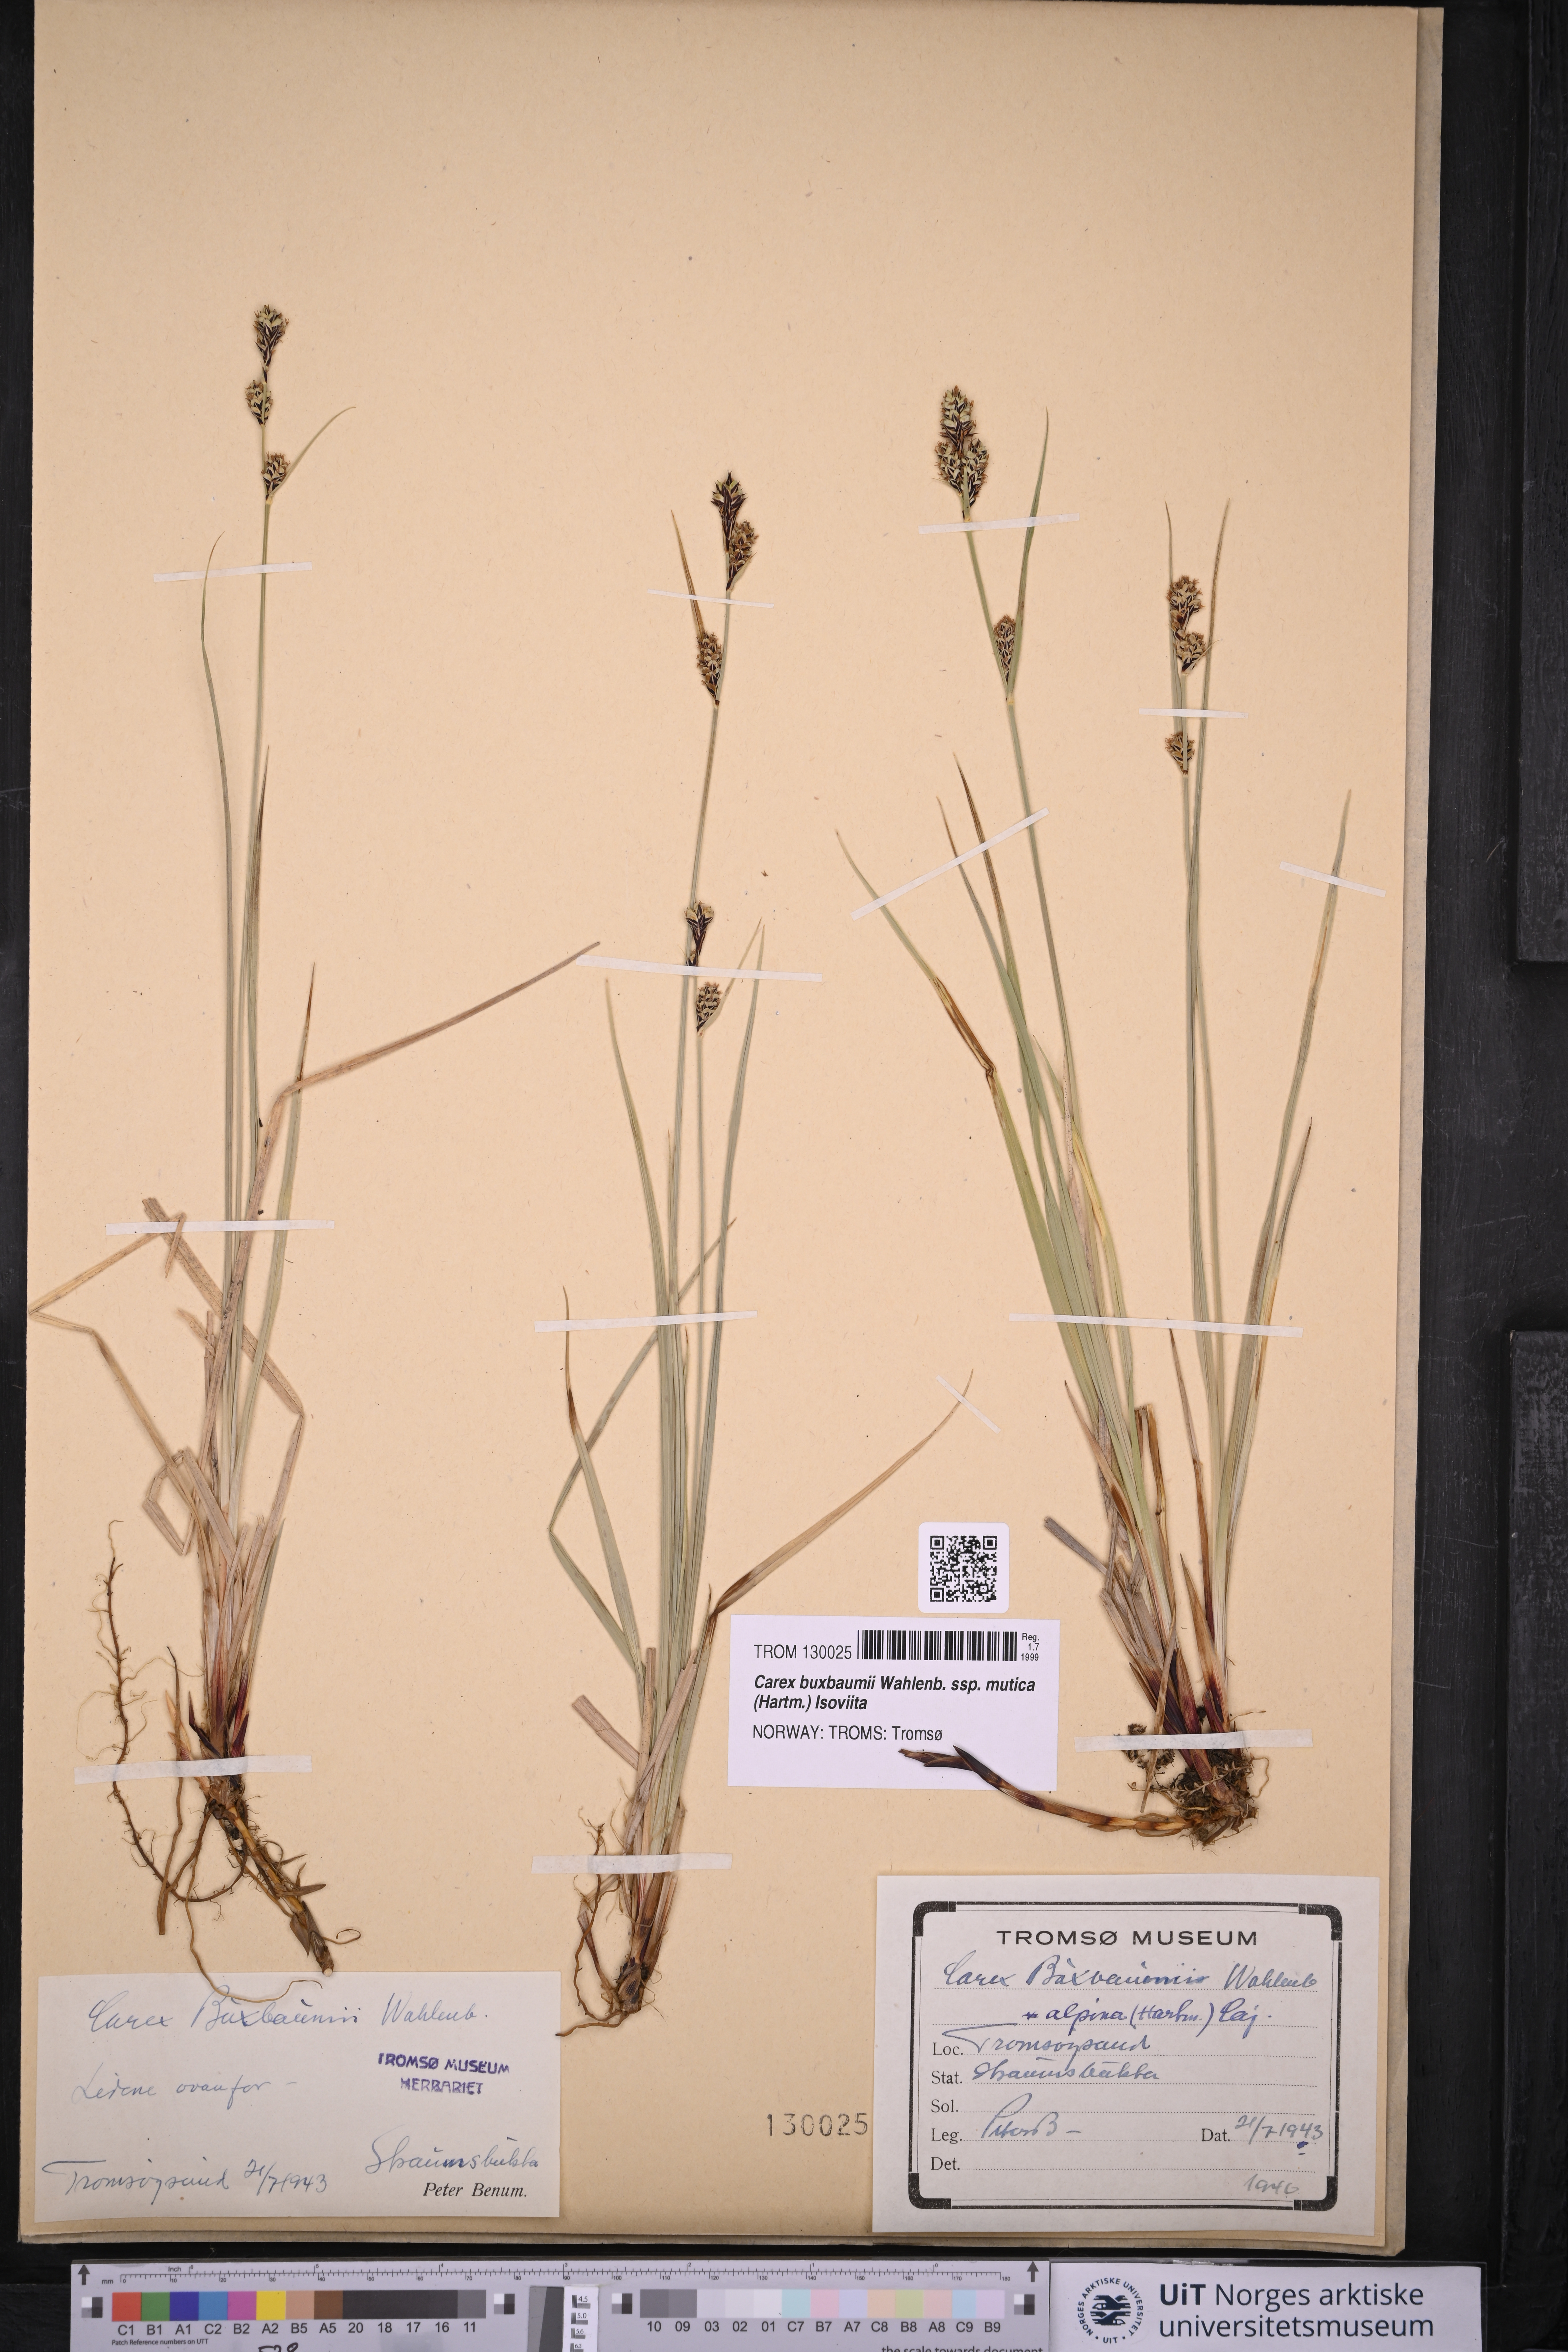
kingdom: Plantae
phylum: Tracheophyta
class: Liliopsida
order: Poales
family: Cyperaceae
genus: Carex
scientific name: Carex adelostoma
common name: Circumpolar sedge
